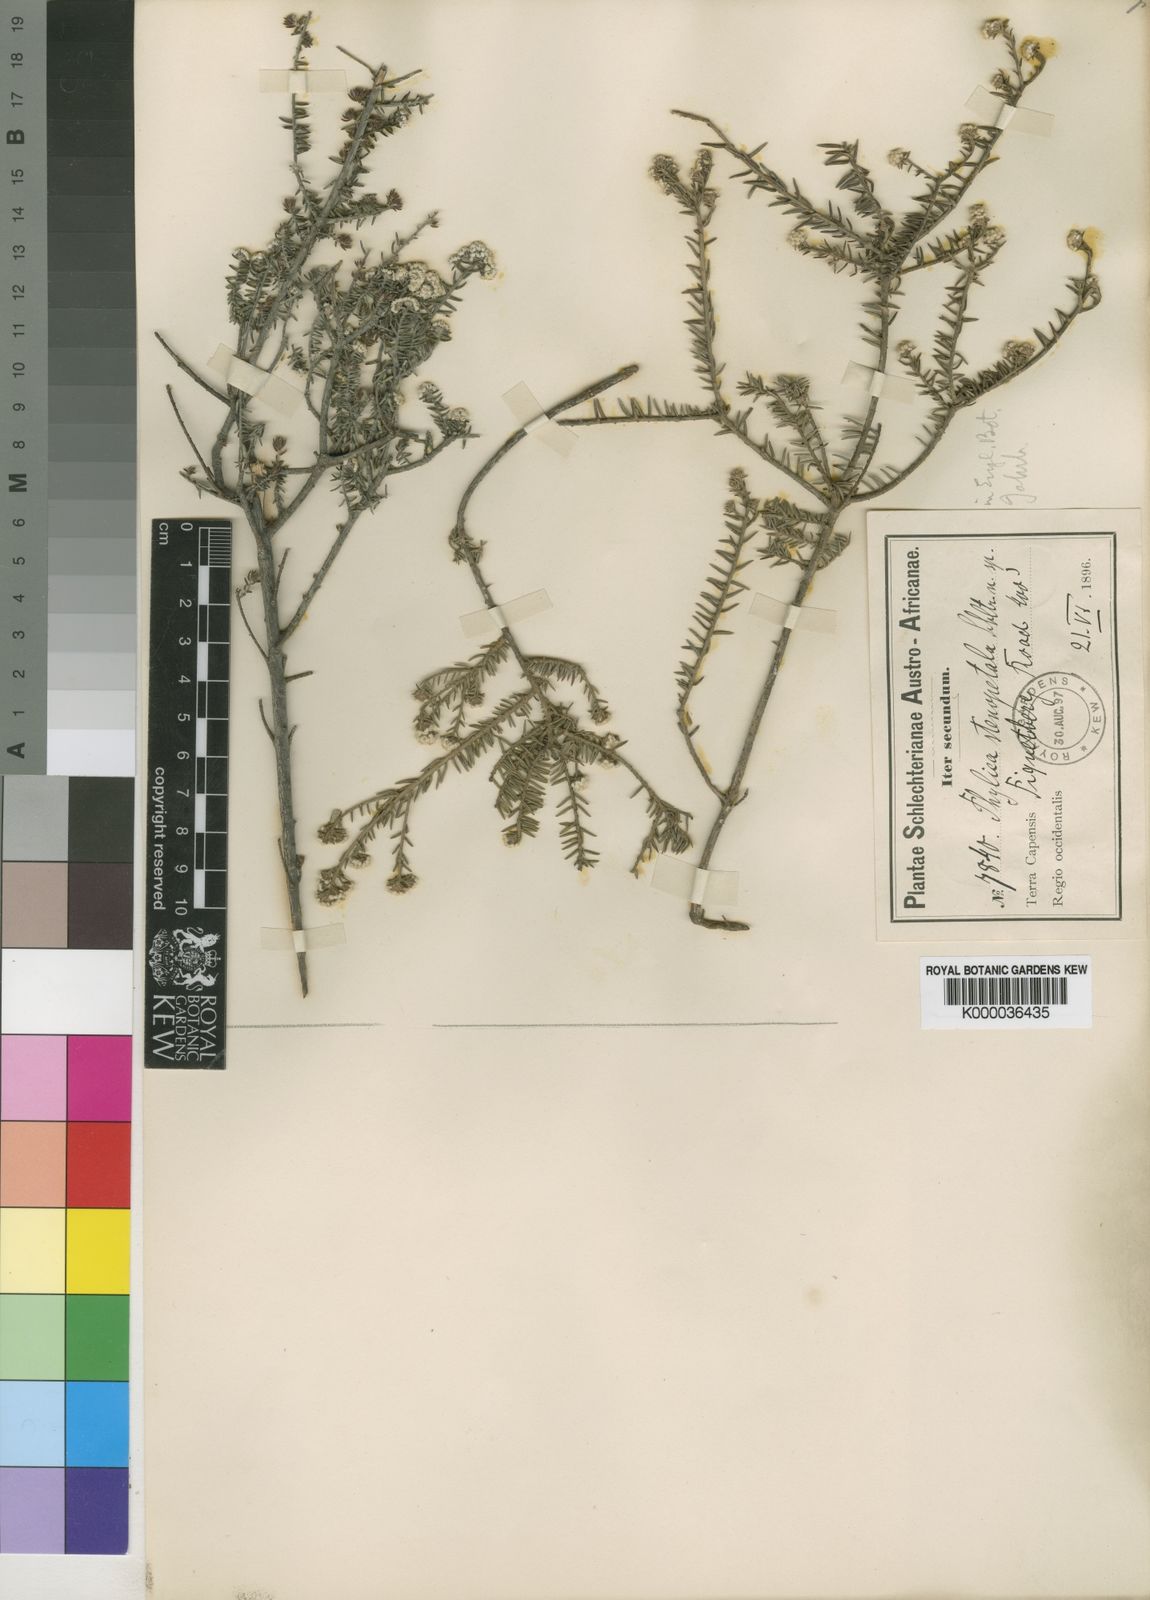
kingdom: Plantae
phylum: Tracheophyta
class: Magnoliopsida
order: Rosales
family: Rhamnaceae
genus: Phylica
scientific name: Phylica stenopetala
